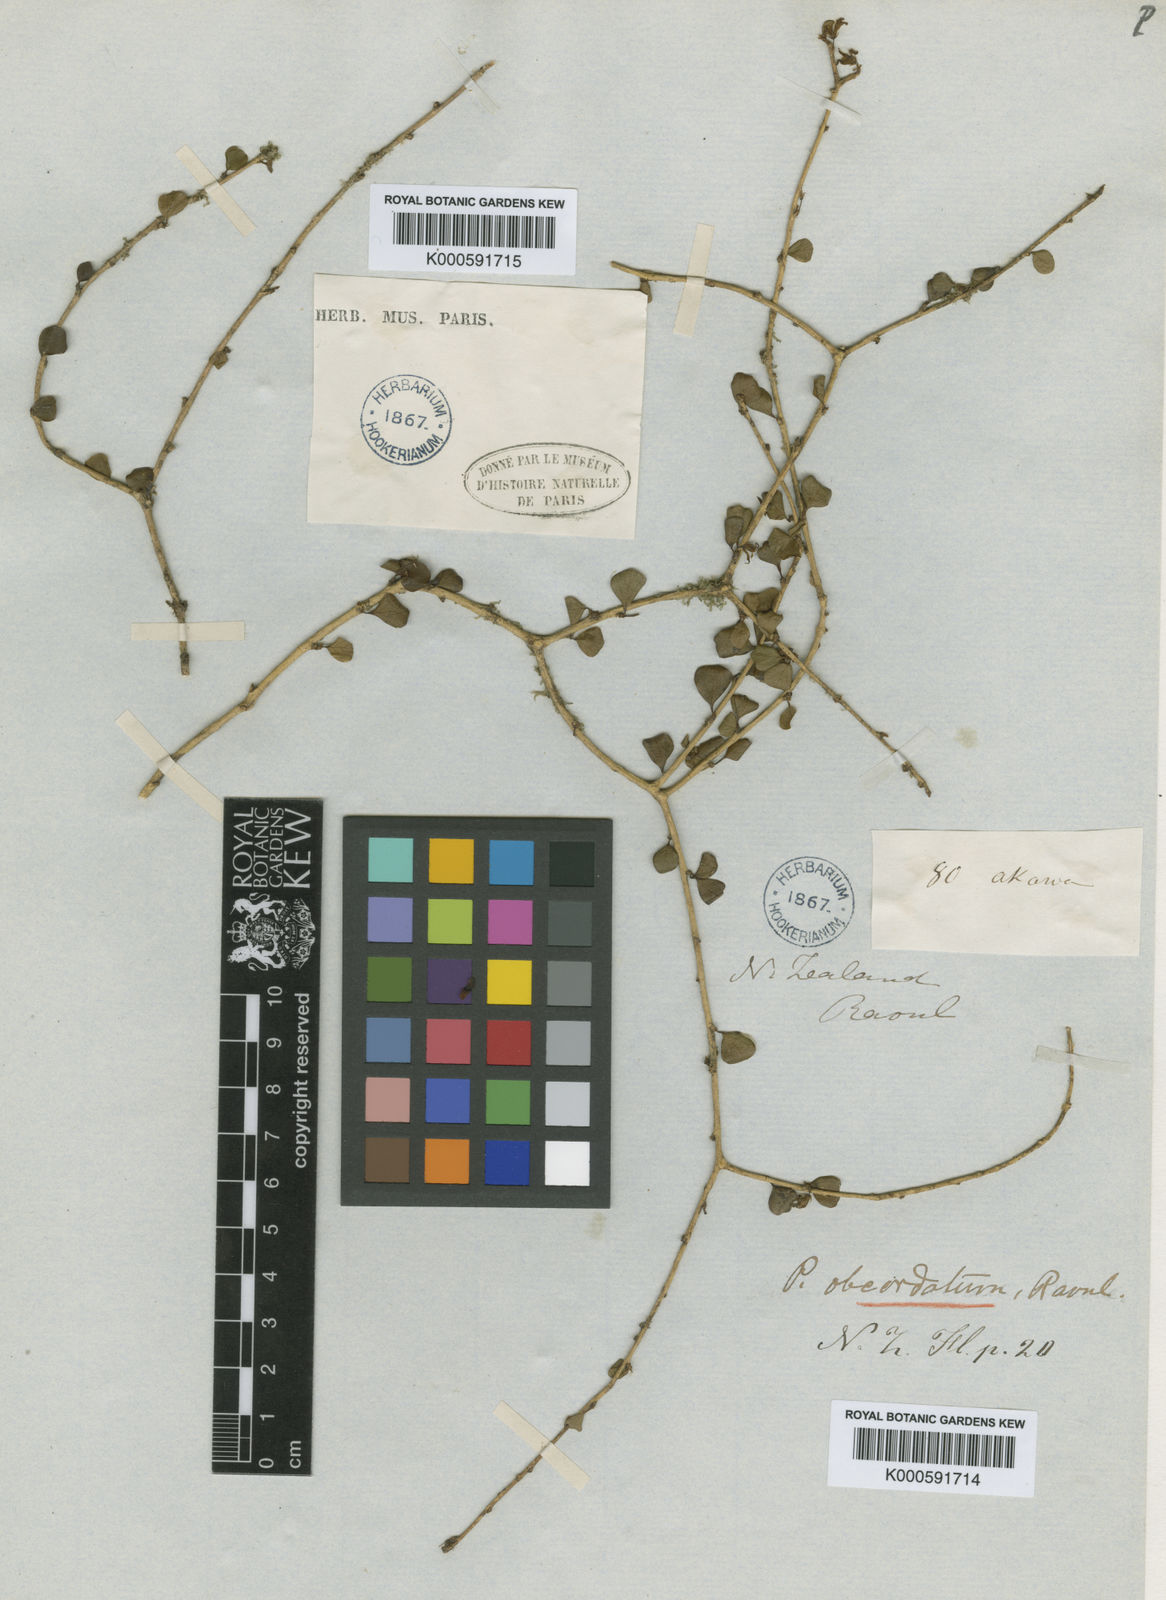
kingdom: Plantae
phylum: Tracheophyta
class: Magnoliopsida
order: Apiales
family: Pittosporaceae
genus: Pittosporum
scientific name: Pittosporum
